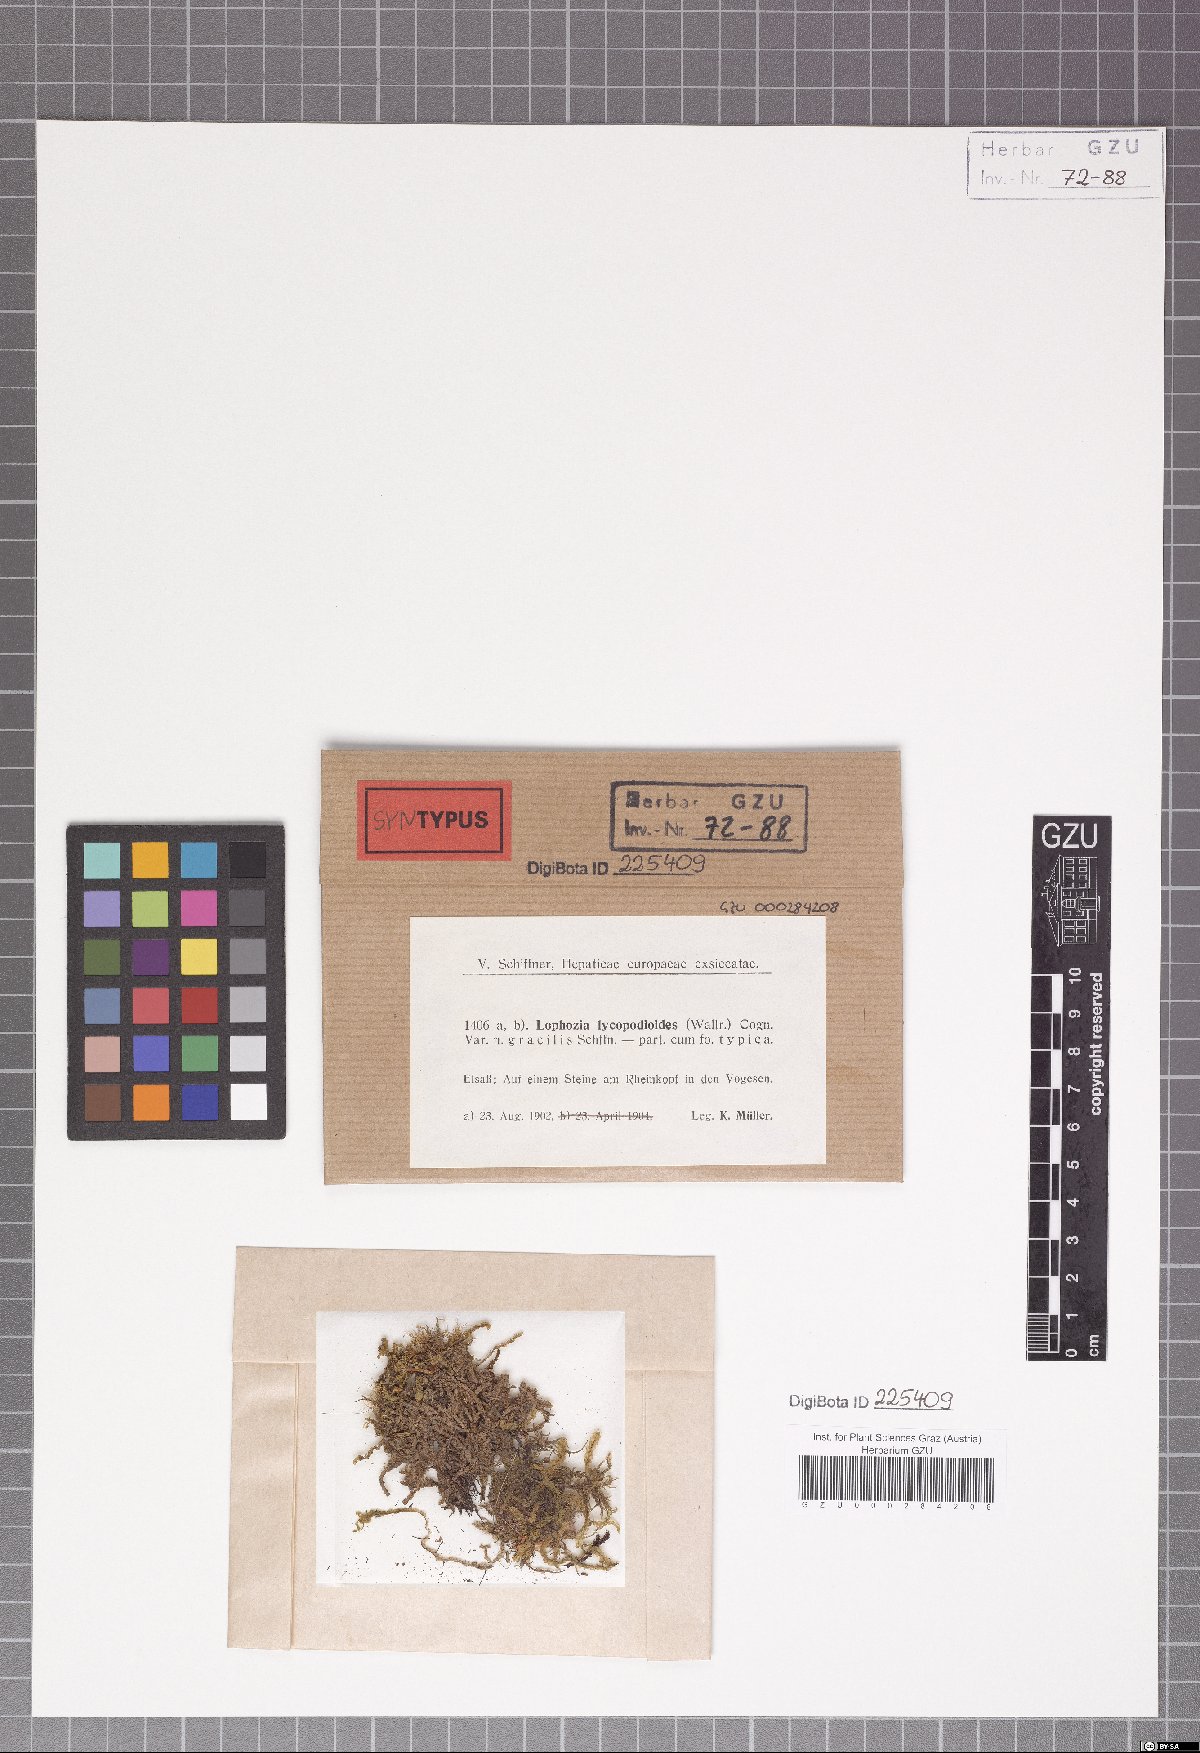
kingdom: Plantae
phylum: Marchantiophyta
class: Jungermanniopsida
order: Jungermanniales
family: Anastrophyllaceae
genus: Barbilophozia
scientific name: Barbilophozia lycopodioides
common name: Greater pawwort
